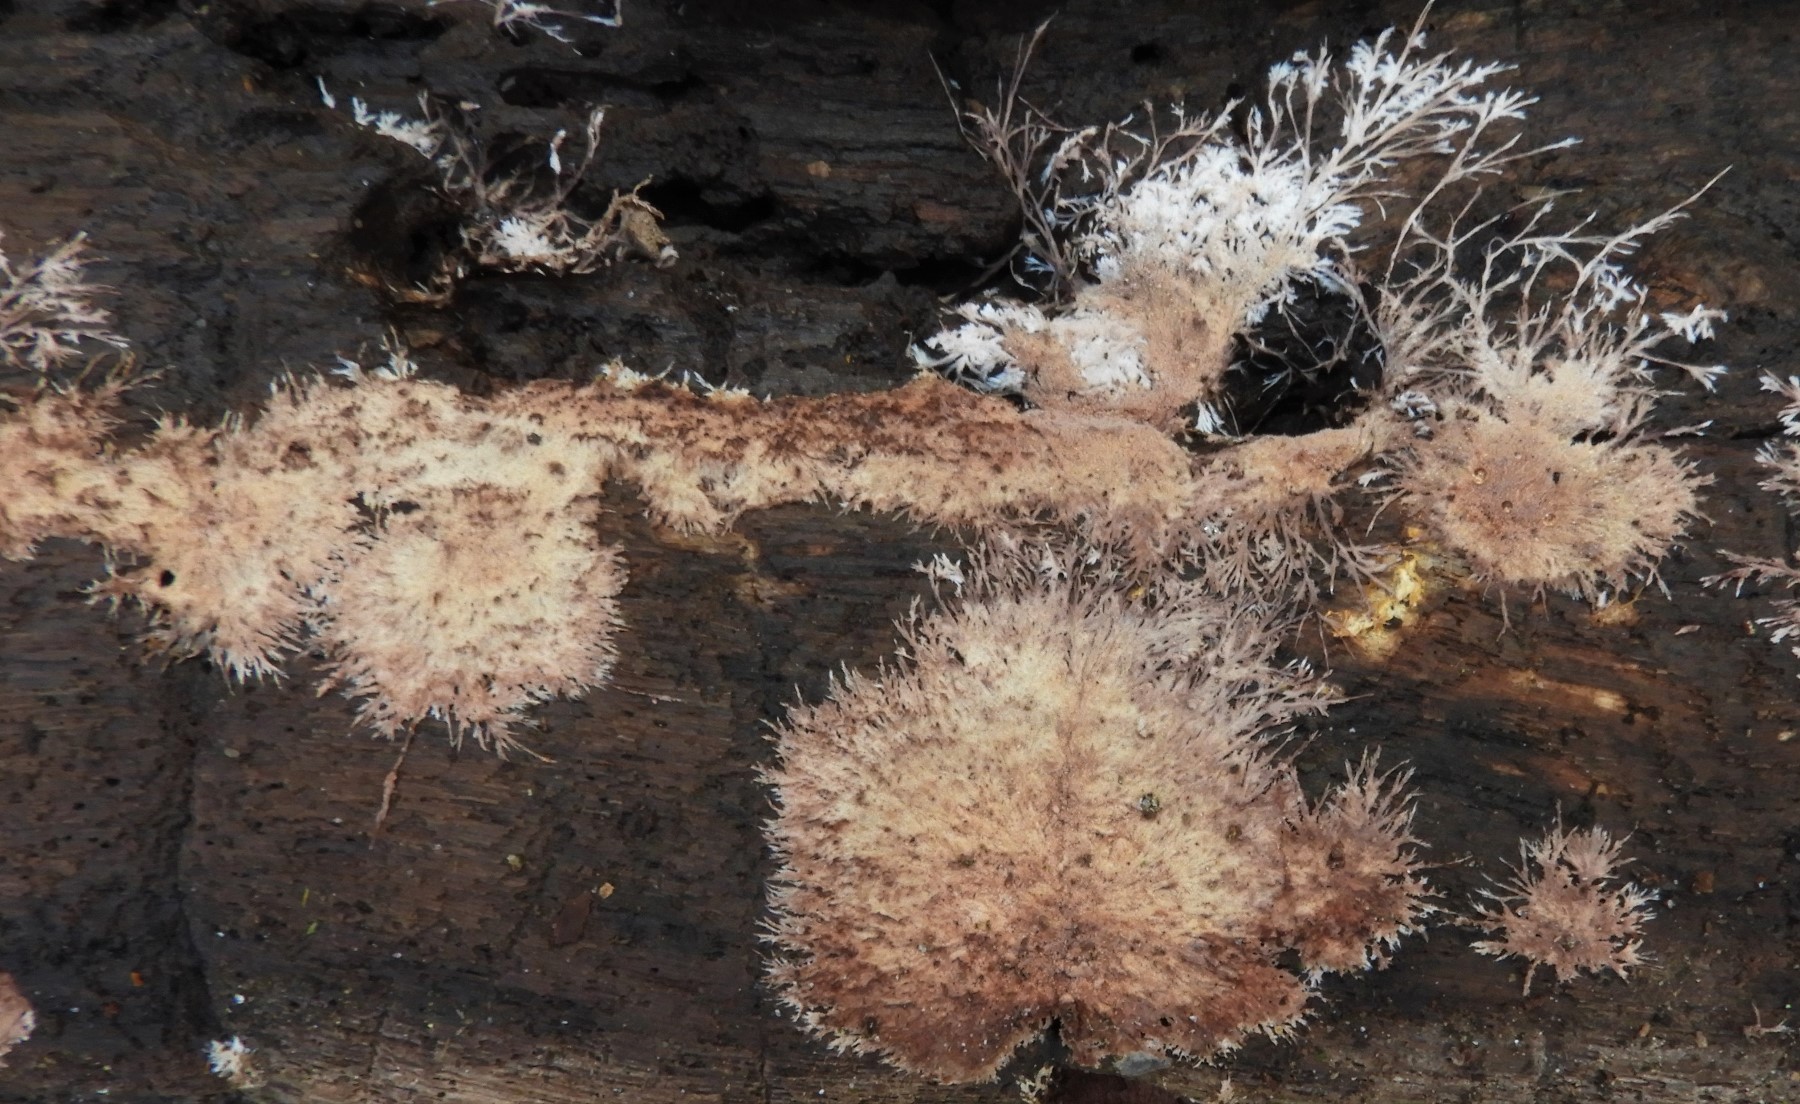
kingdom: Fungi
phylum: Basidiomycota
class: Agaricomycetes
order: Polyporales
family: Steccherinaceae
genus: Steccherinum
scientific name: Steccherinum fimbriatum
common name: trådet skønpig
